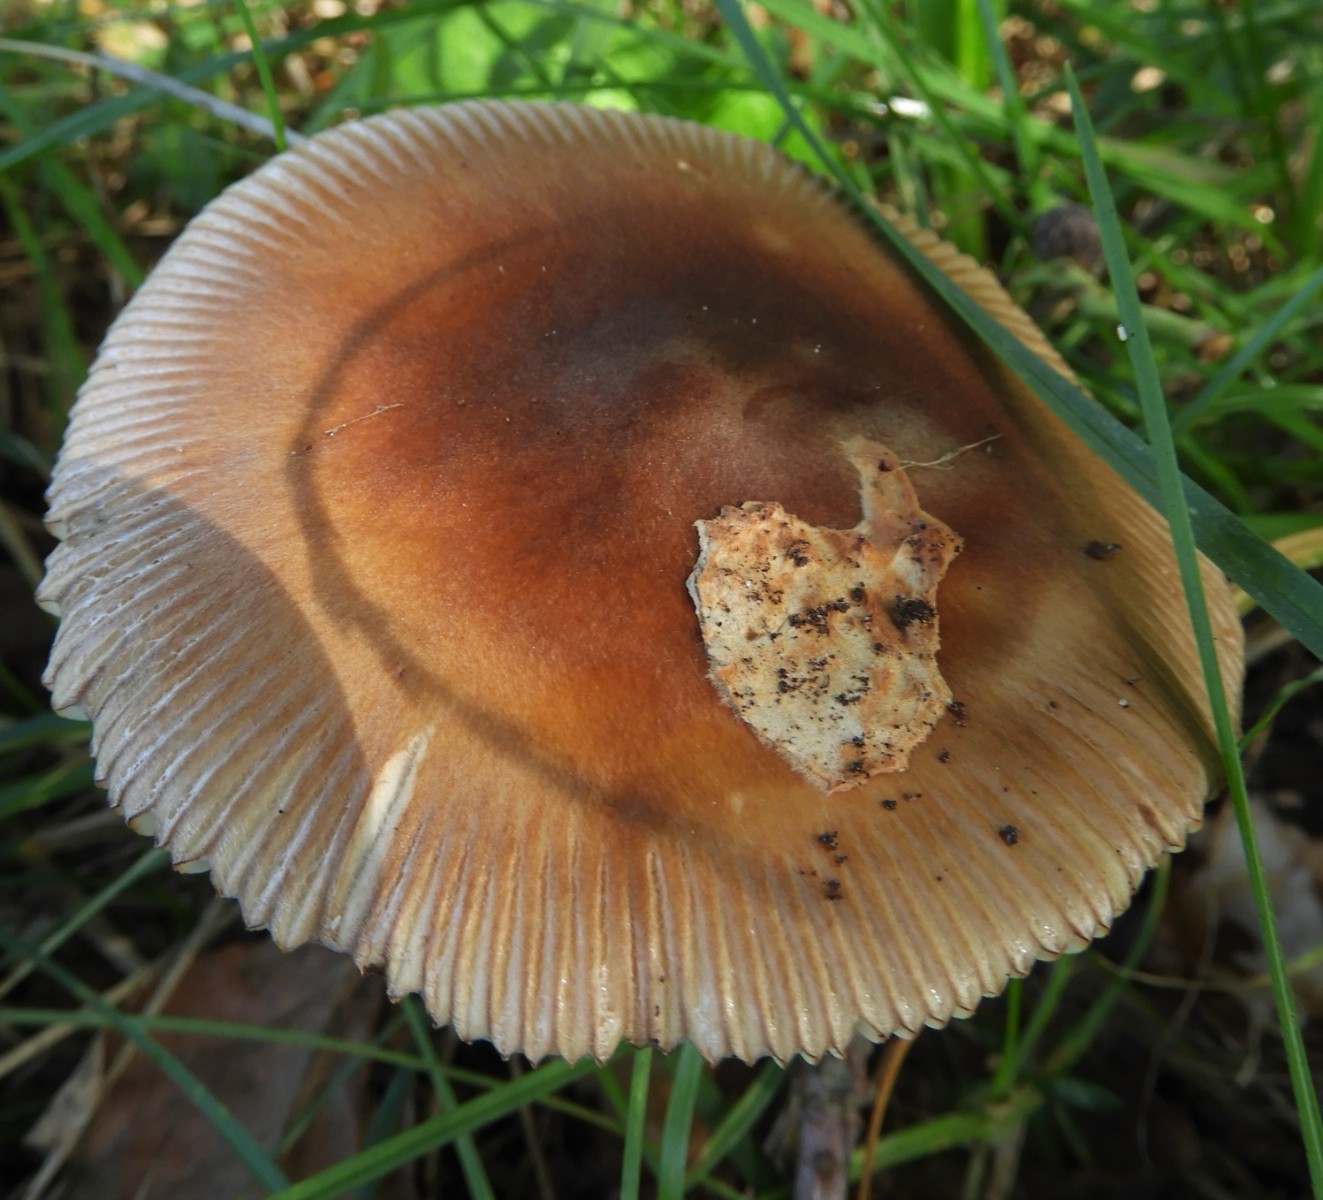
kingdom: Fungi
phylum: Basidiomycota
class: Agaricomycetes
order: Agaricales
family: Amanitaceae
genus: Amanita
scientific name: Amanita fulva
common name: brun kam-fluesvamp
